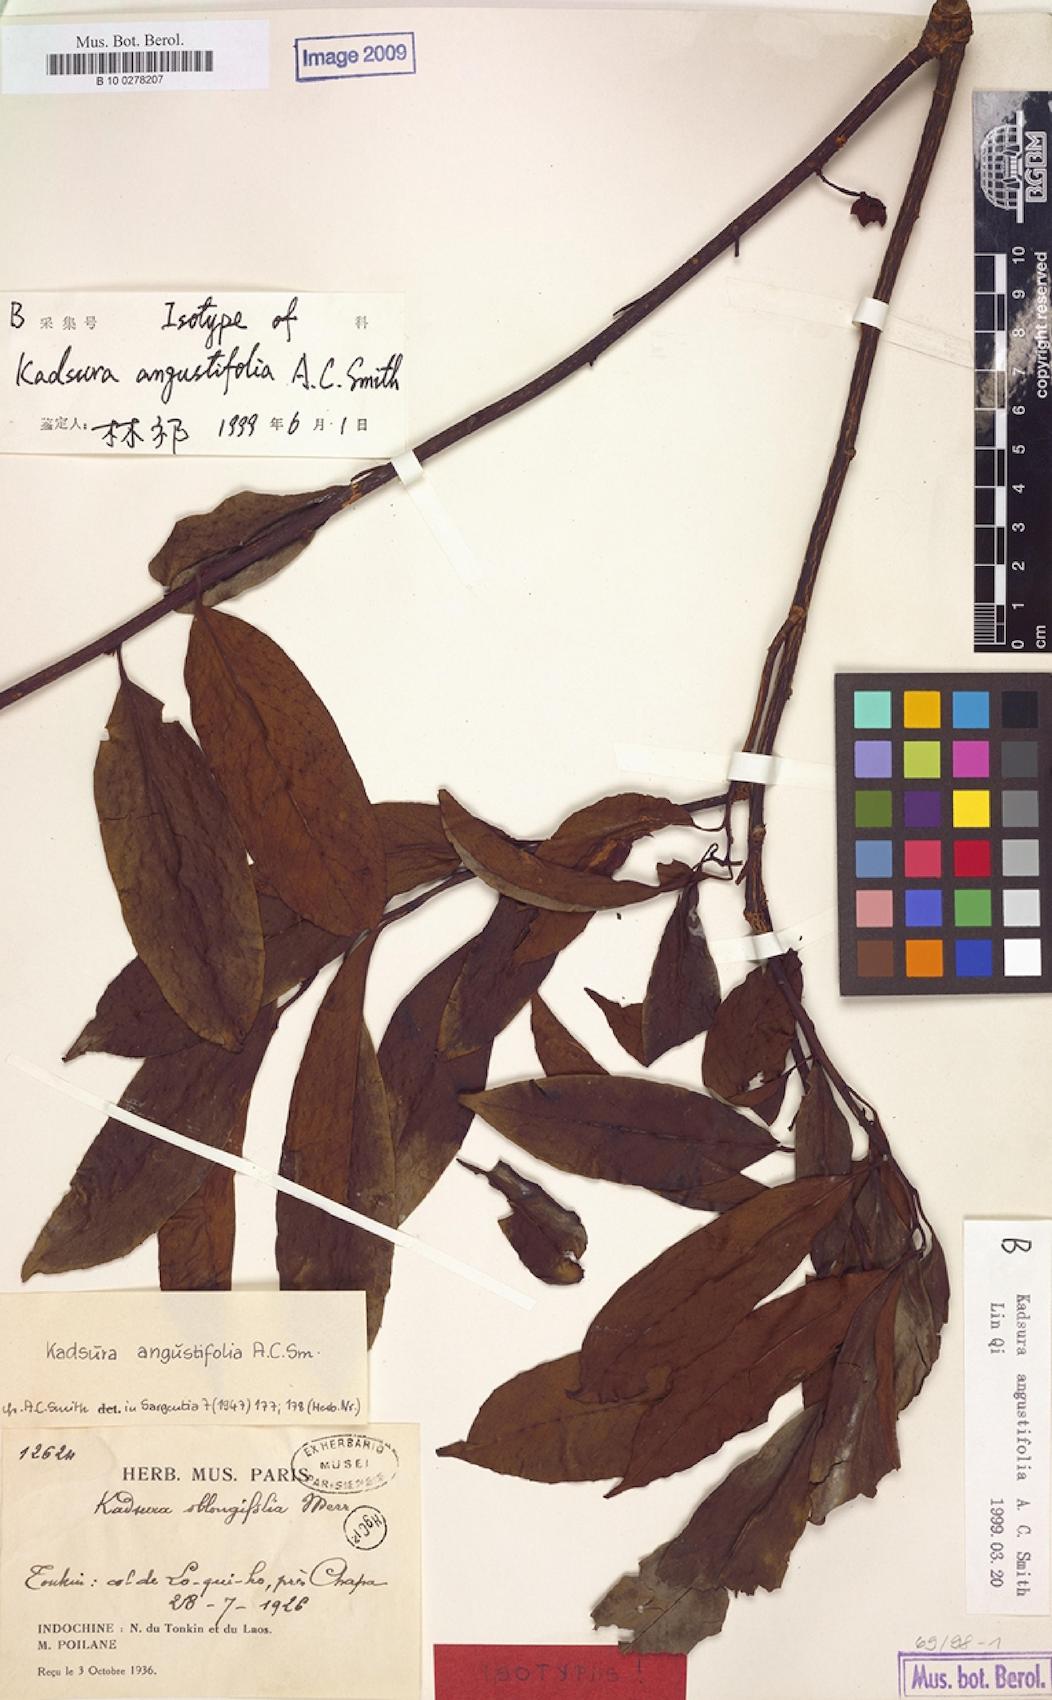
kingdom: Plantae
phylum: Tracheophyta
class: Magnoliopsida
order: Austrobaileyales
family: Schisandraceae
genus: Kadsura
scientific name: Kadsura angustifolia
